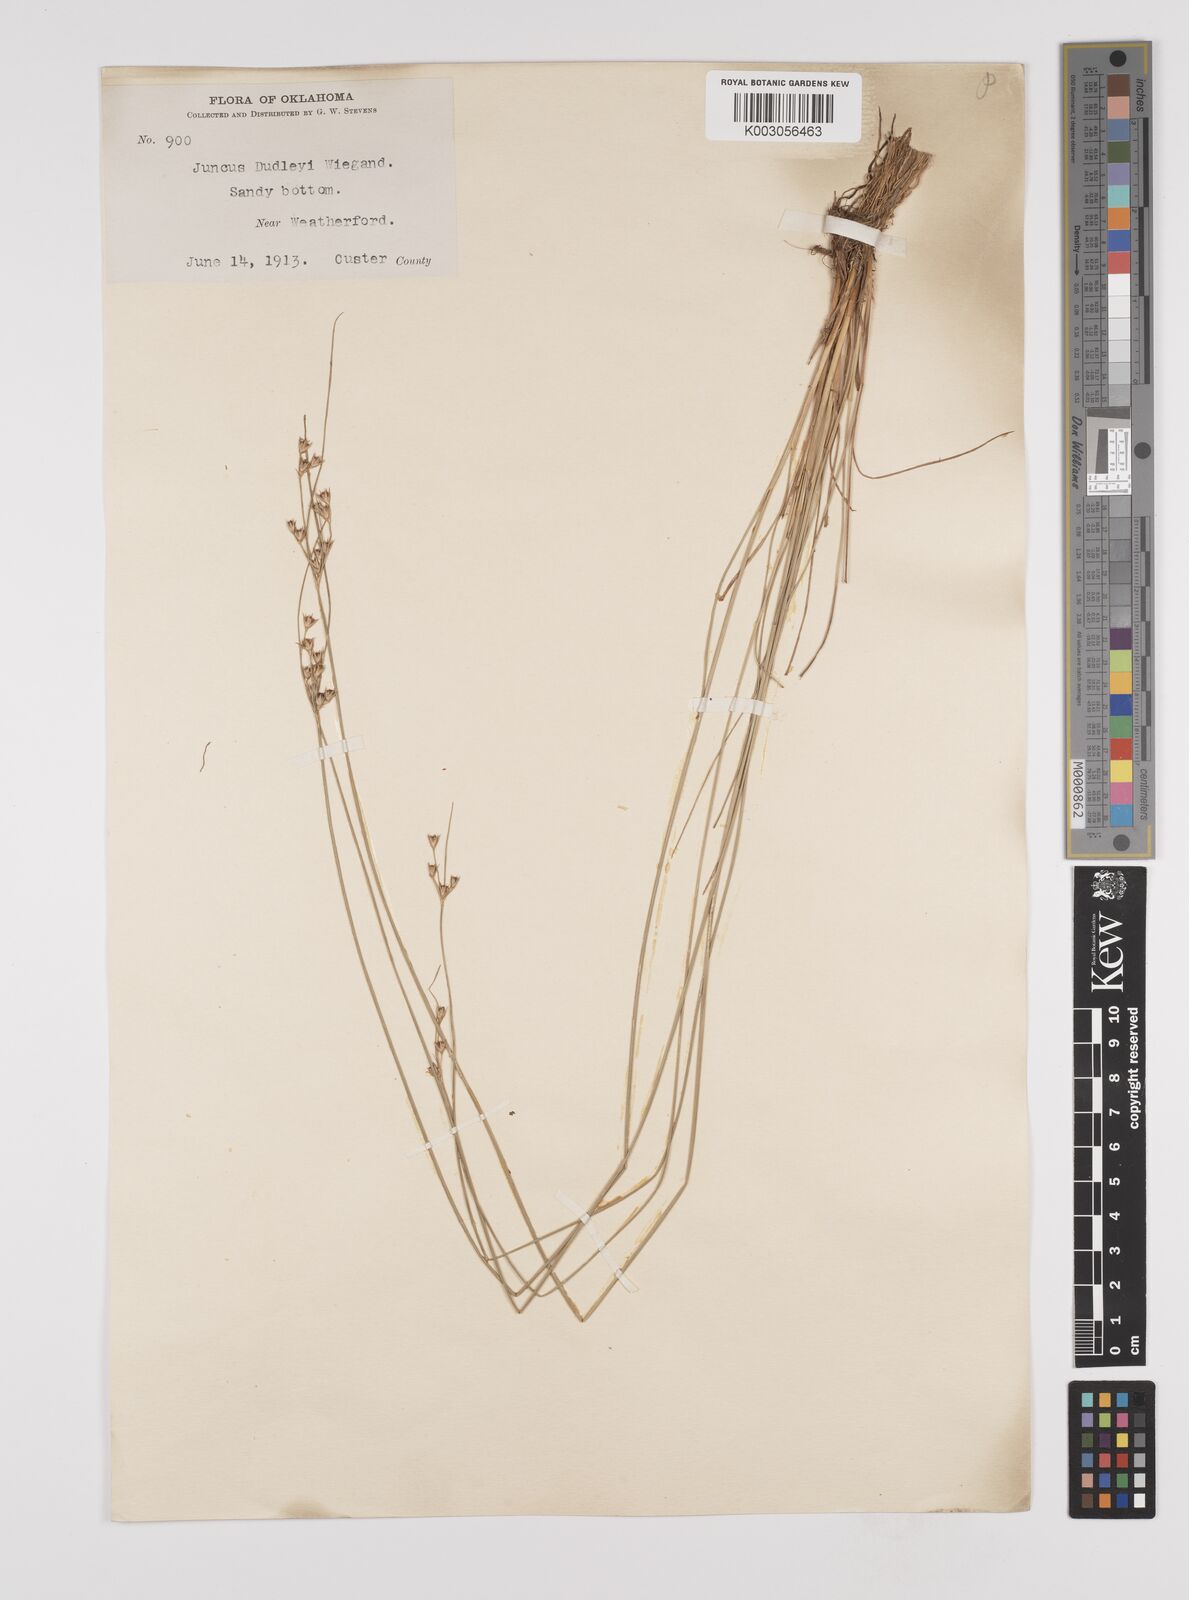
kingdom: Plantae
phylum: Tracheophyta
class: Liliopsida
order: Poales
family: Juncaceae
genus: Juncus
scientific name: Juncus dudleyi
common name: Dudley's rush
